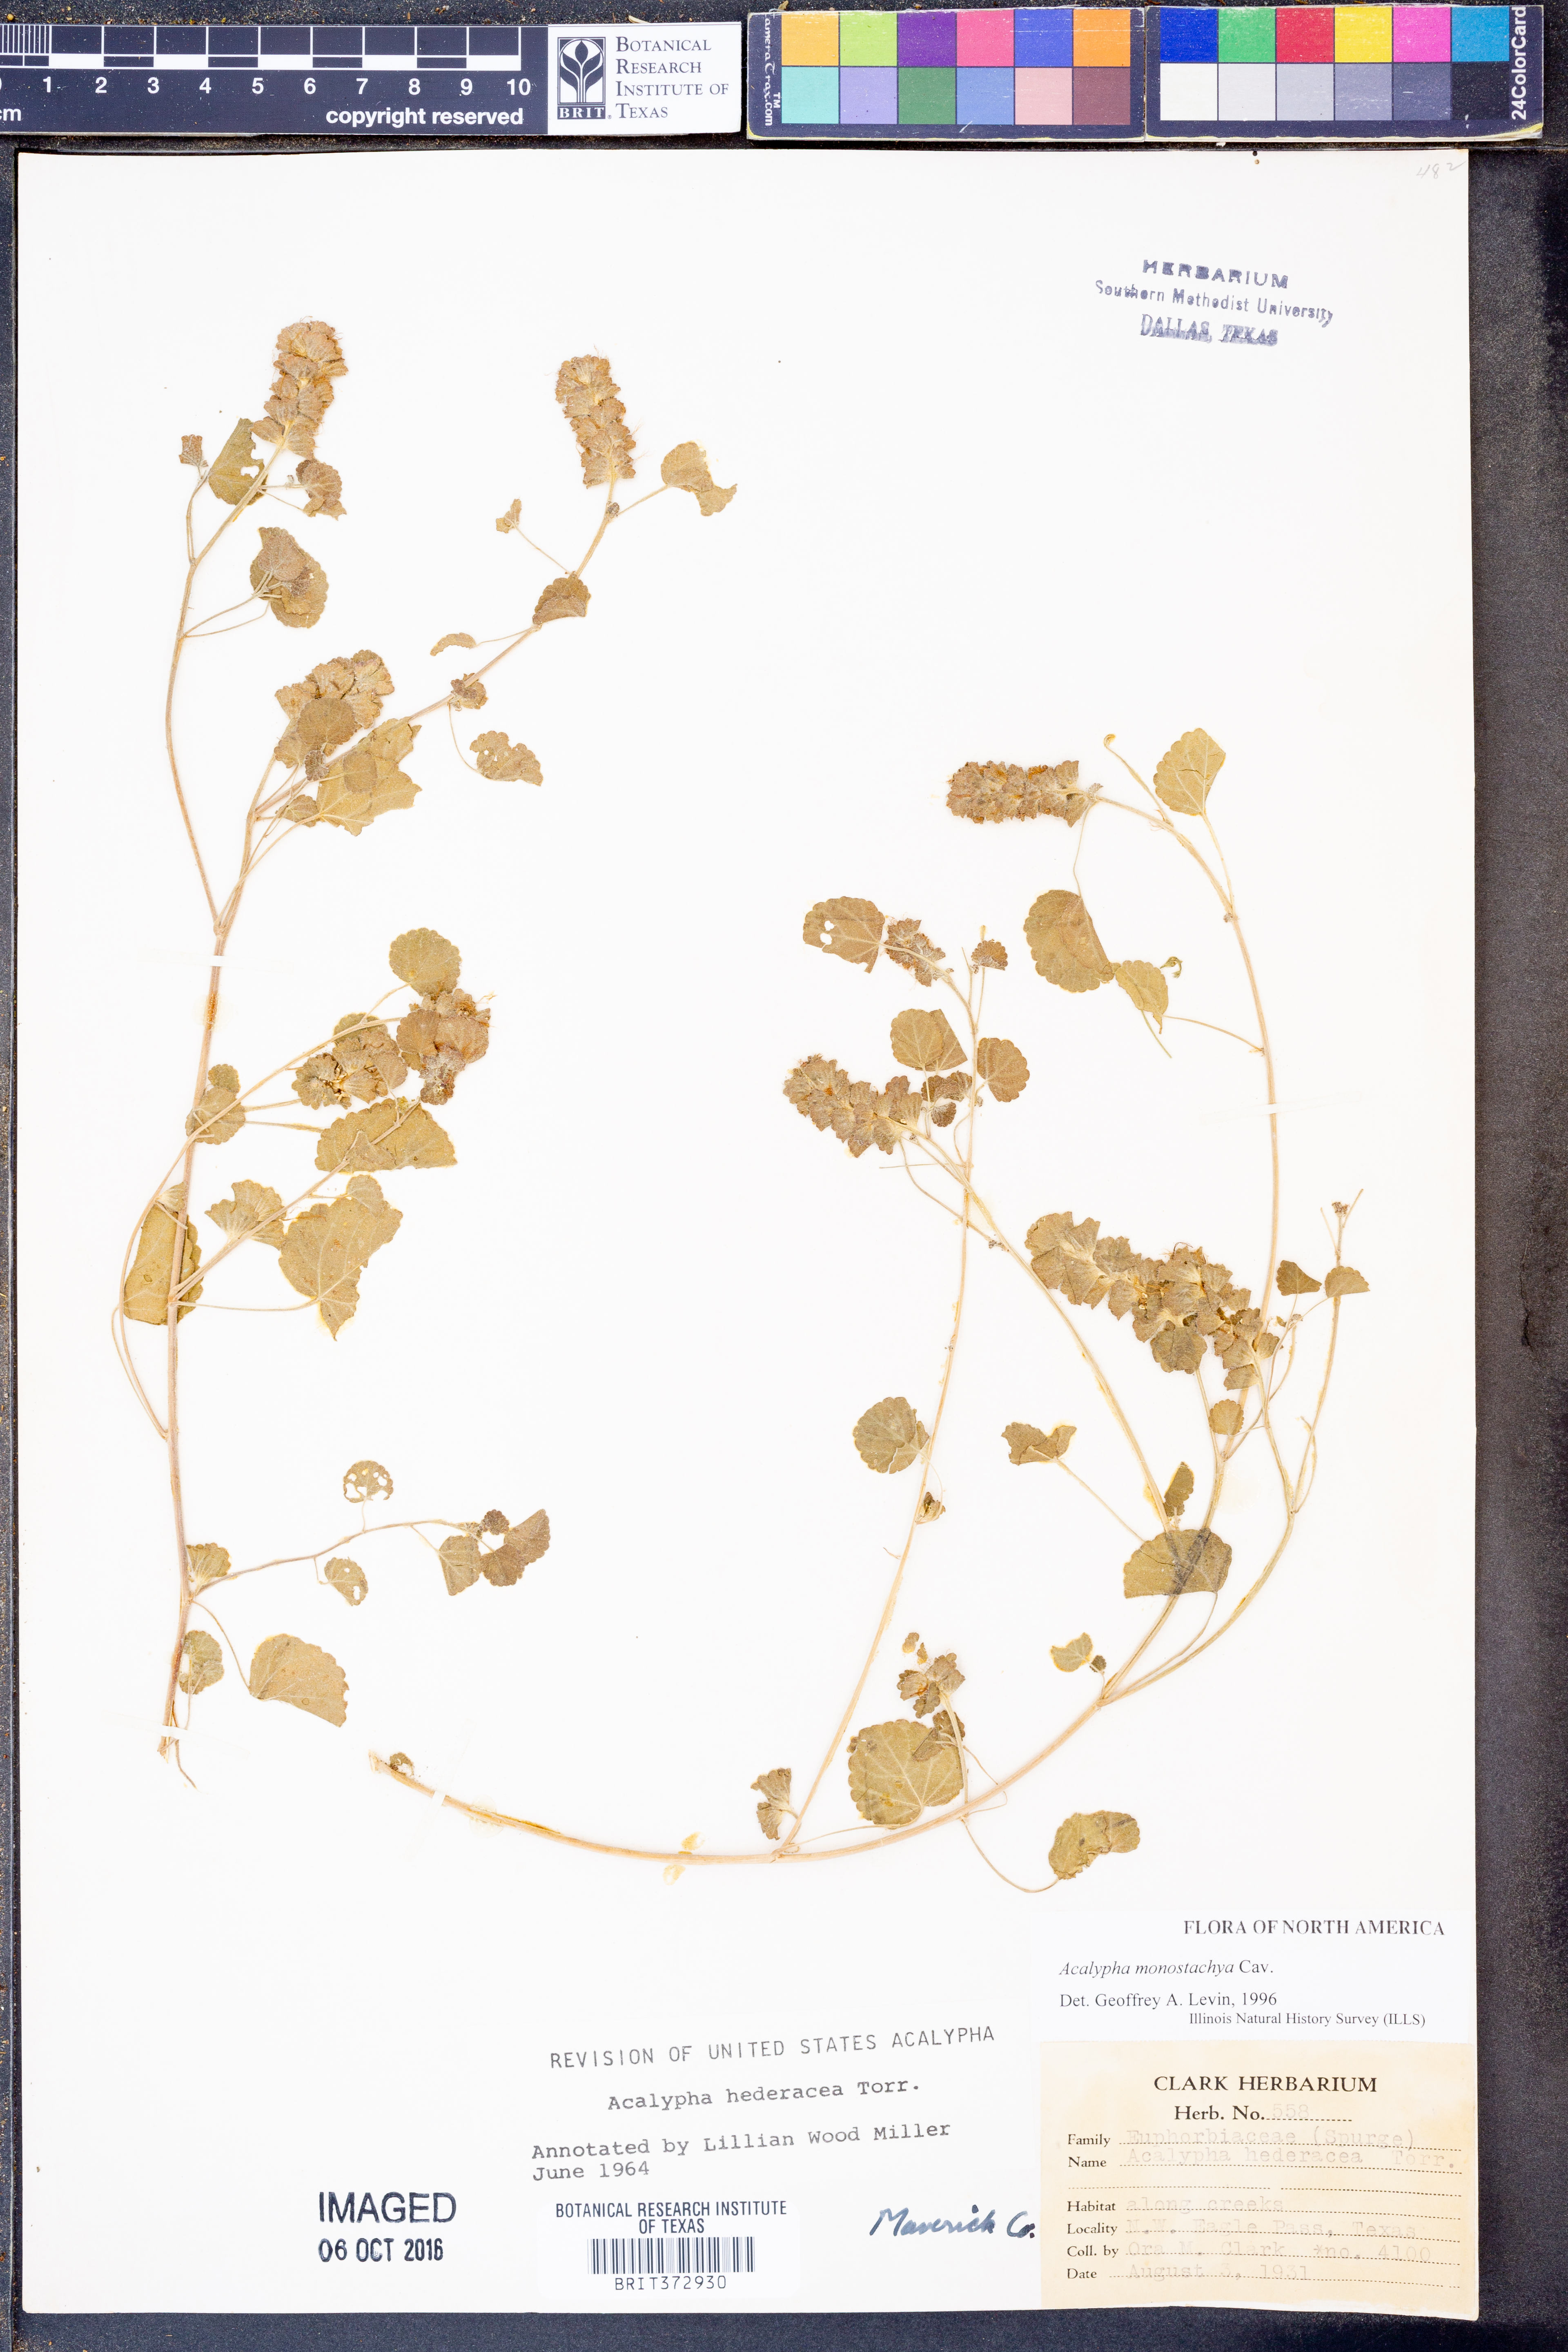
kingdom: Plantae
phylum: Tracheophyta
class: Magnoliopsida
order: Malpighiales
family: Euphorbiaceae
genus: Acalypha
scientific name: Acalypha monostachya
